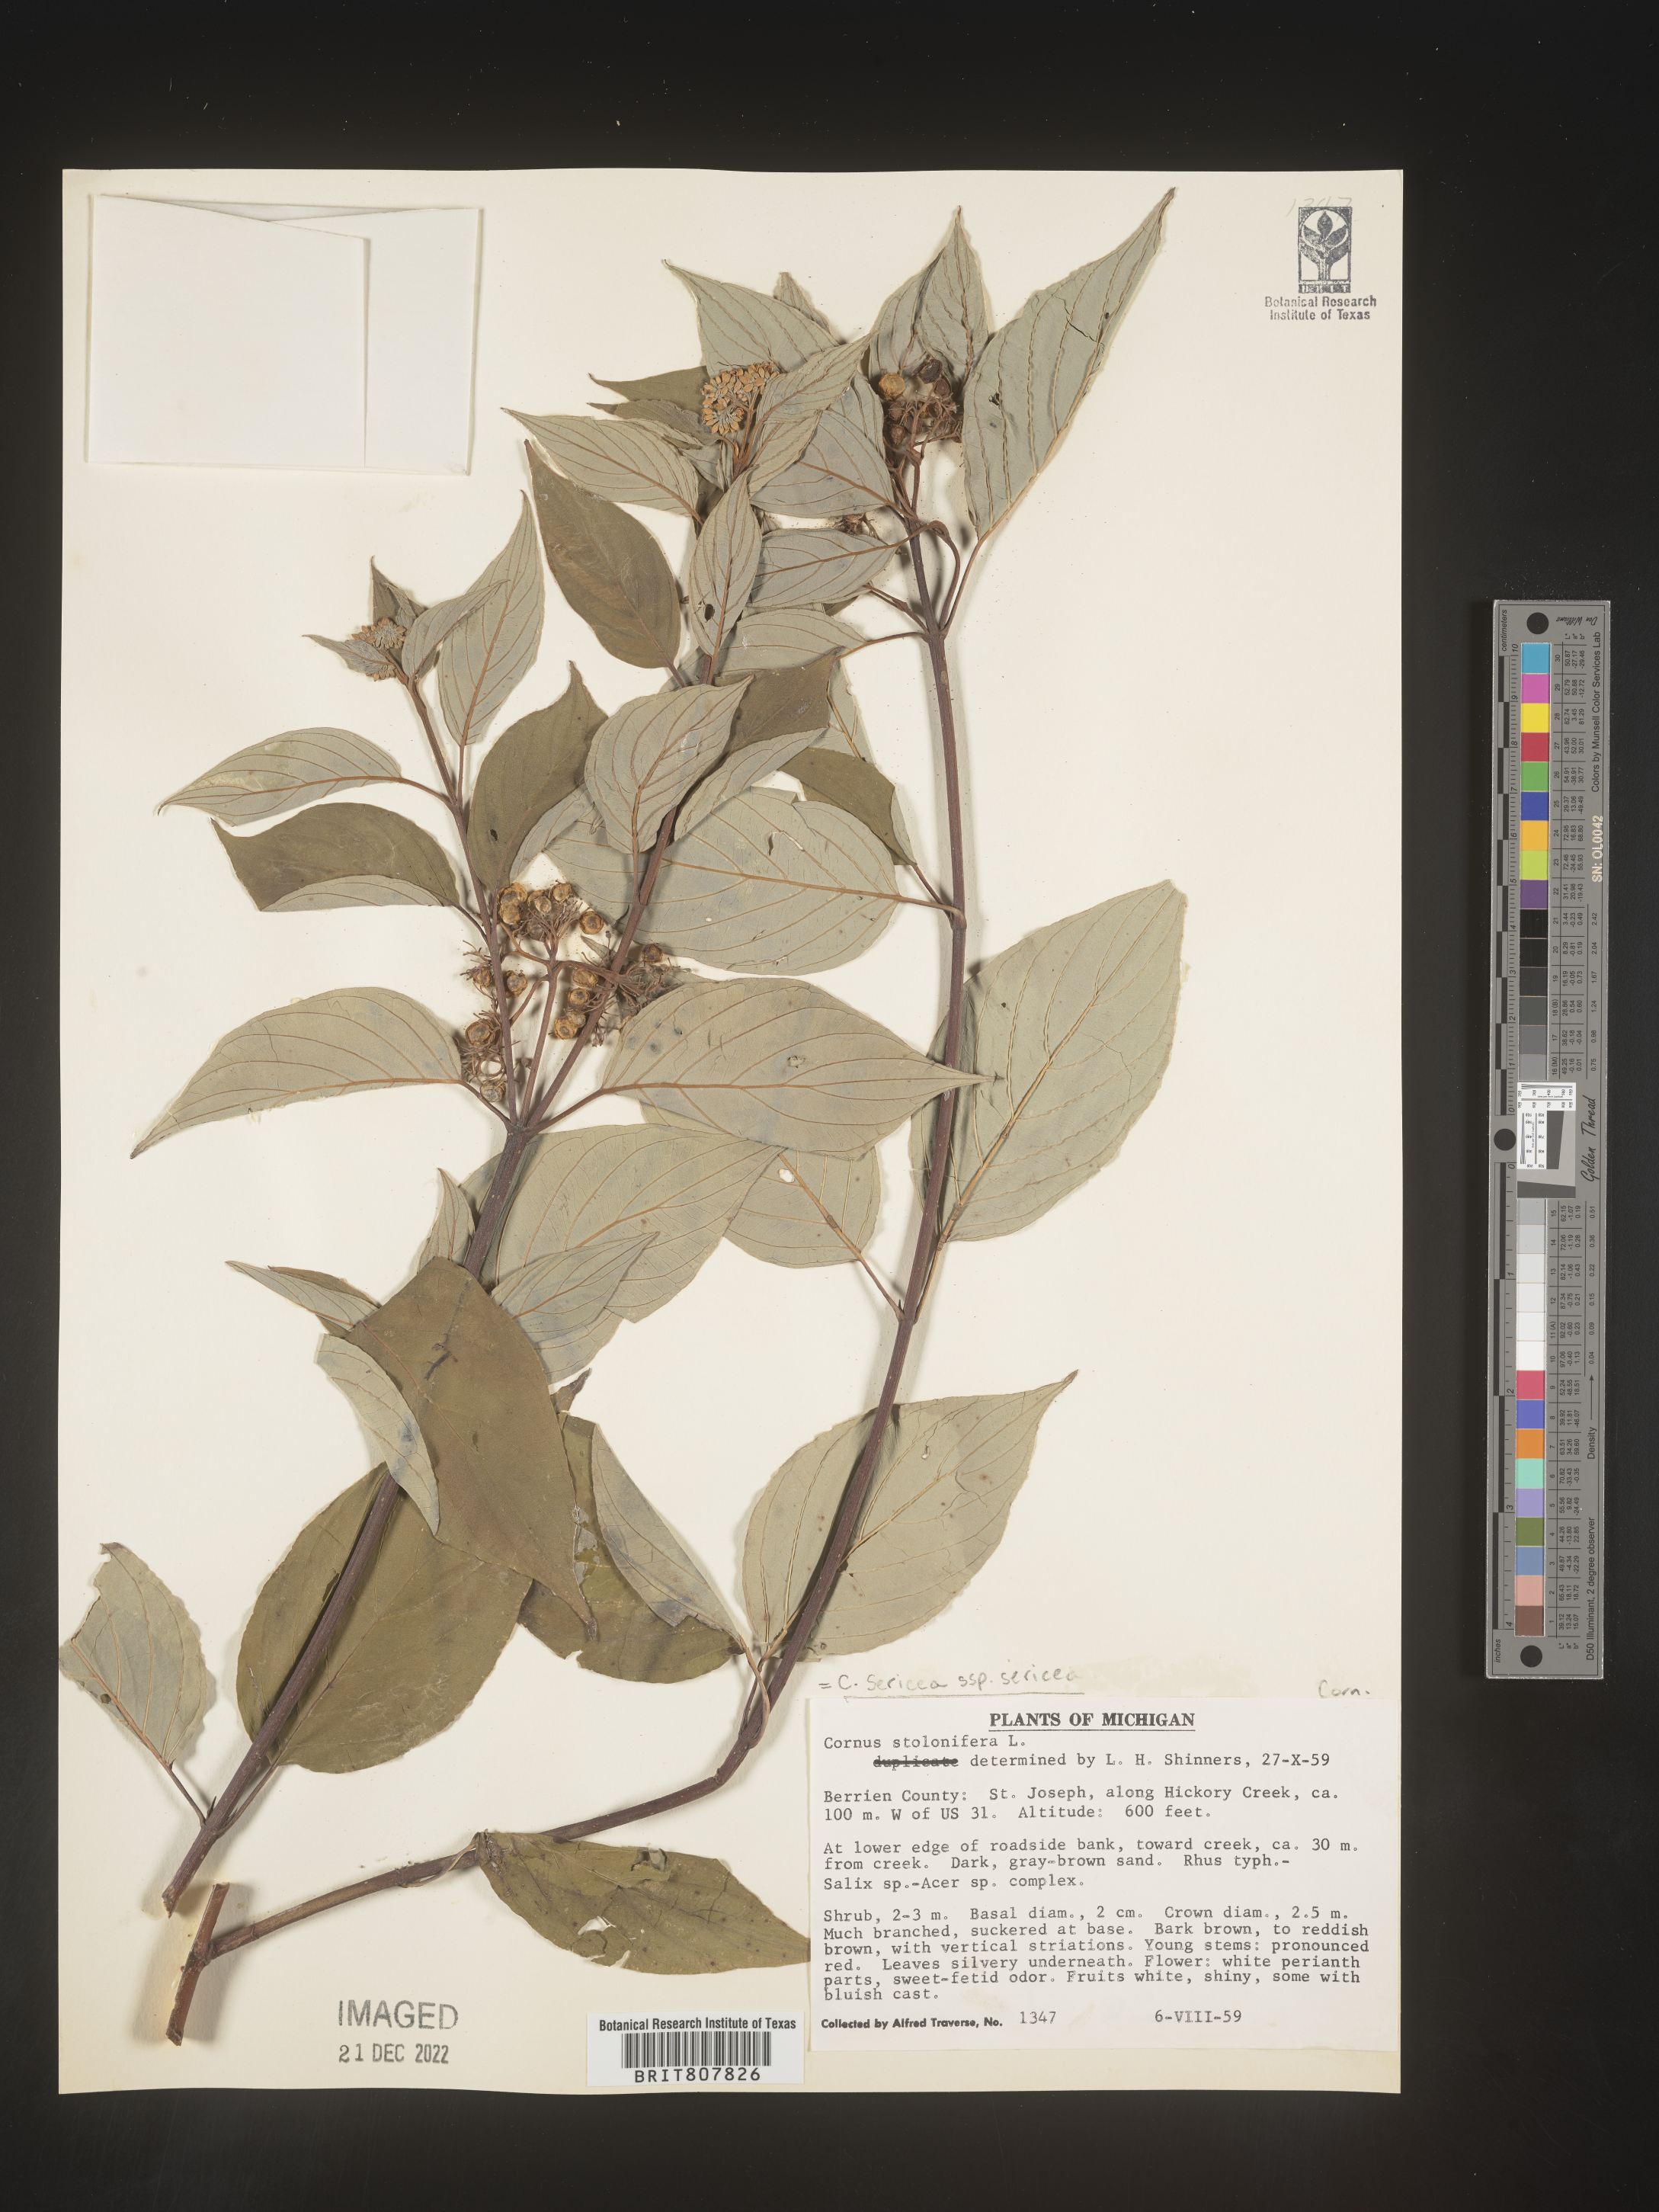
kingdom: Plantae
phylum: Tracheophyta
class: Magnoliopsida
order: Cornales
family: Cornaceae
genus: Cornus
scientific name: Cornus
